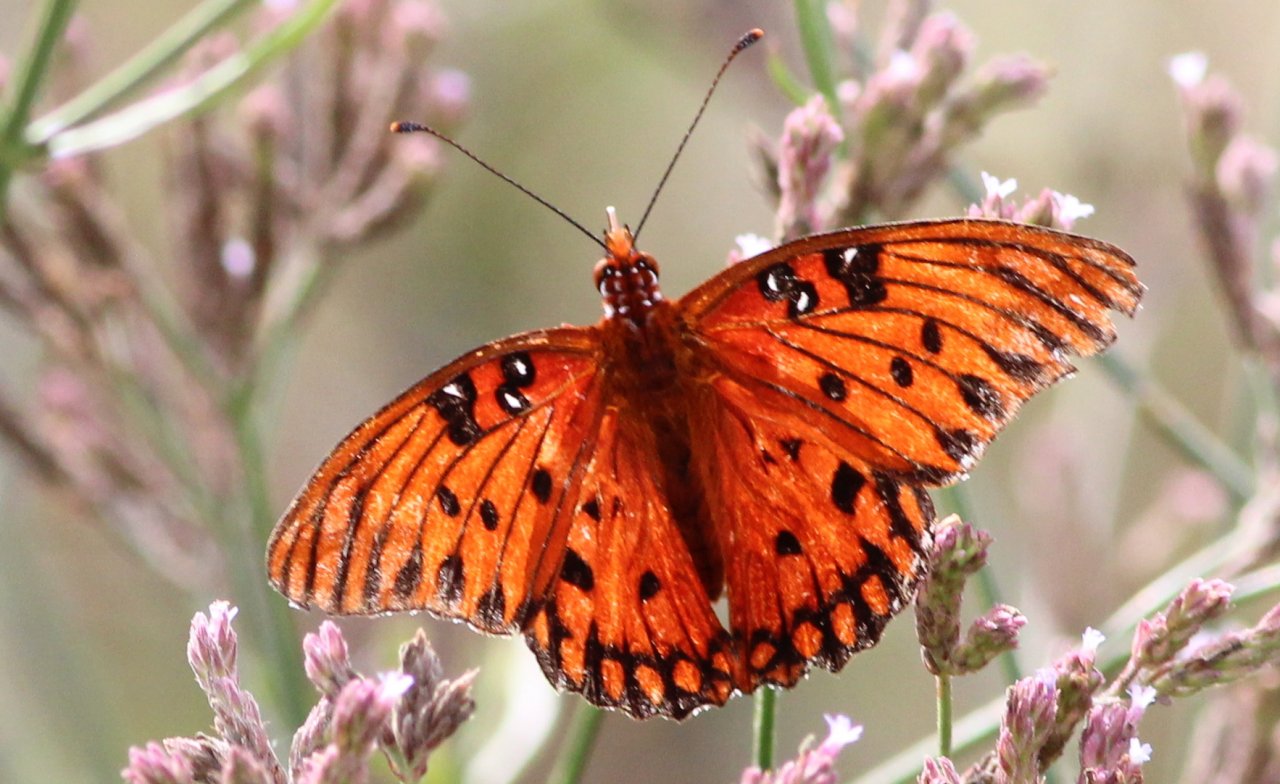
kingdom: Animalia
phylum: Arthropoda
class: Insecta
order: Lepidoptera
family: Nymphalidae
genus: Dione
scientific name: Dione vanillae
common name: Gulf Fritillary
